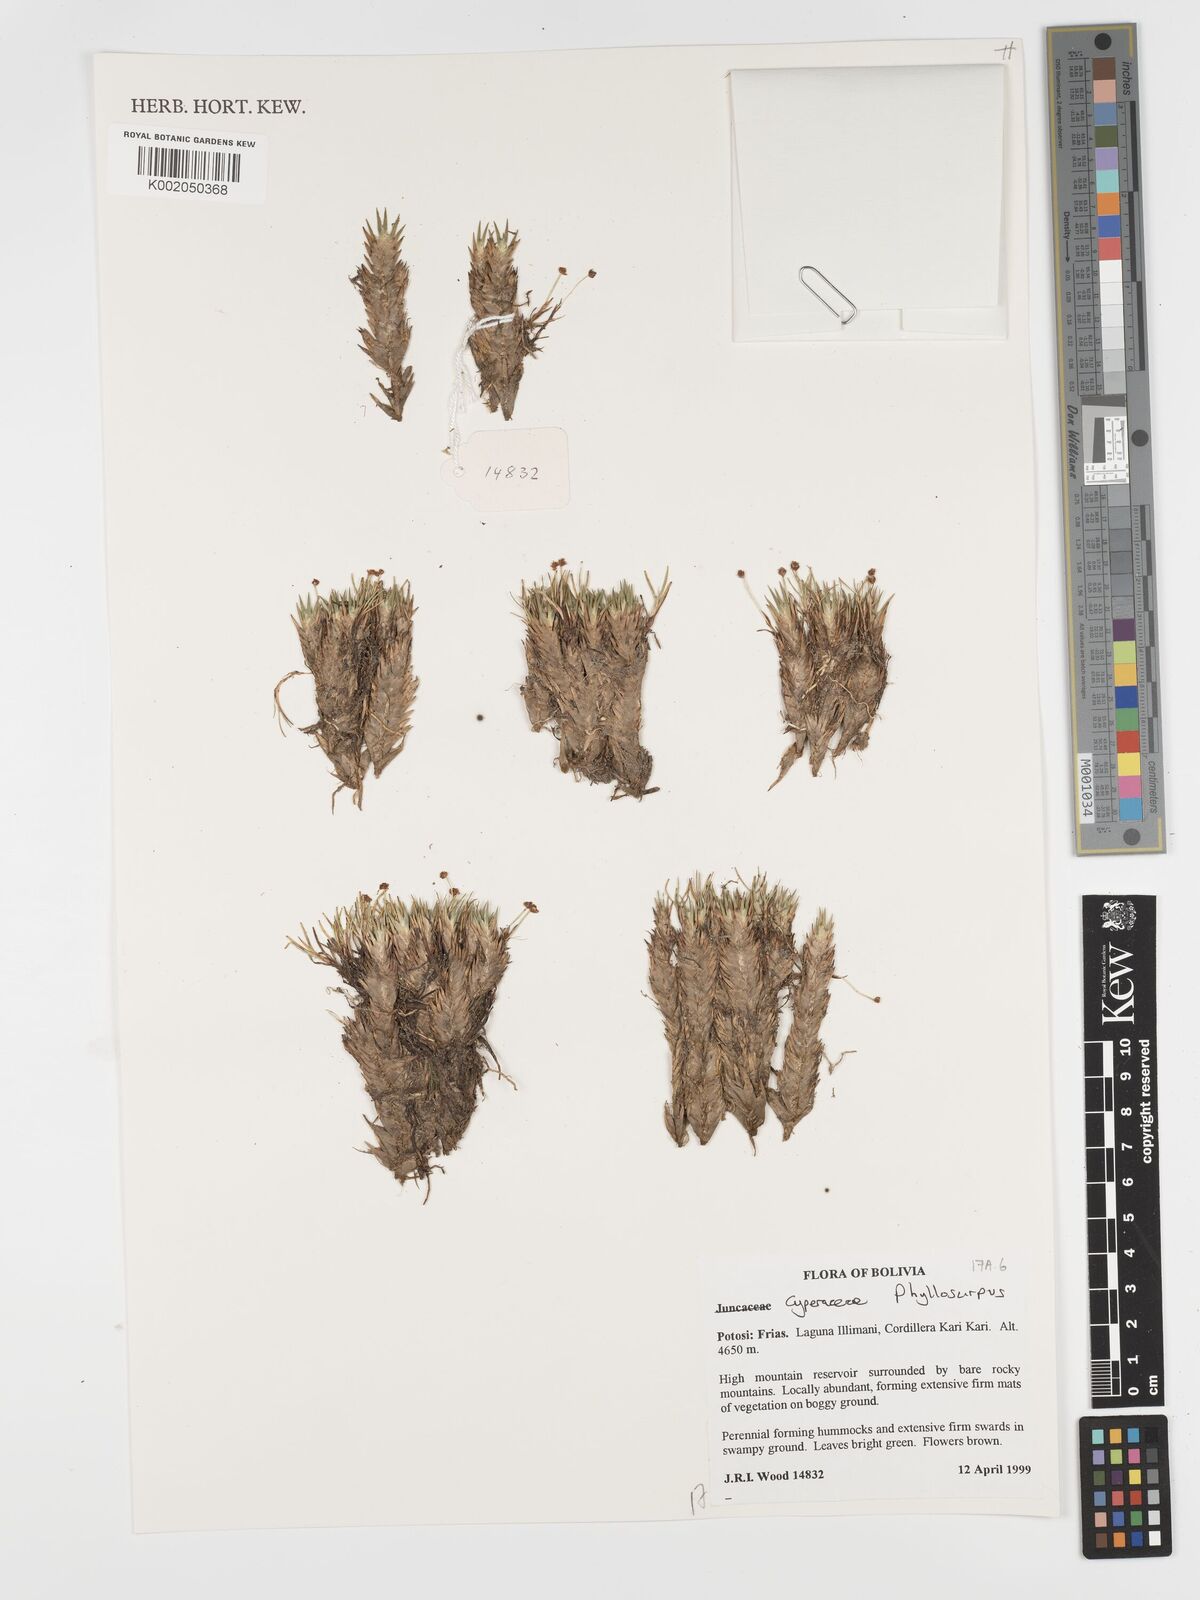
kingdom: Plantae
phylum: Tracheophyta
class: Liliopsida
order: Poales
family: Cyperaceae
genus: Phylloscirpus
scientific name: Phylloscirpus
